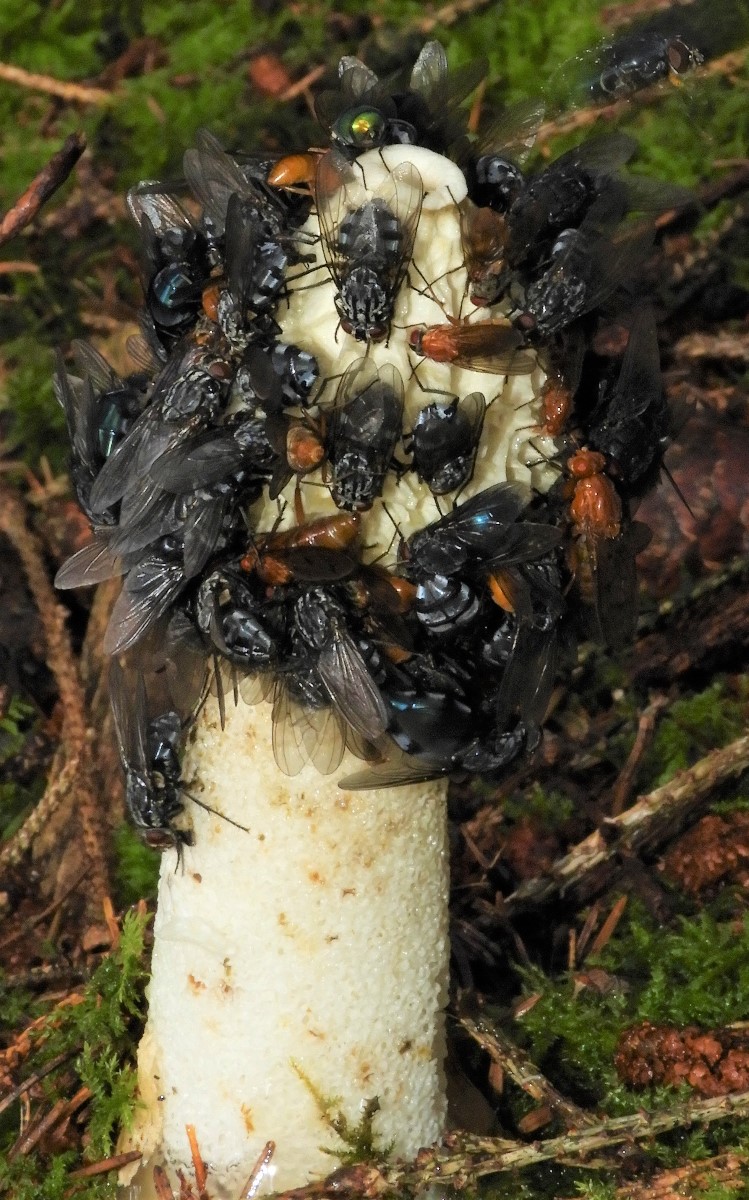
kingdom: Fungi
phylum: Basidiomycota
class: Agaricomycetes
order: Phallales
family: Phallaceae
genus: Phallus
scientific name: Phallus impudicus
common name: almindelig stinksvamp
